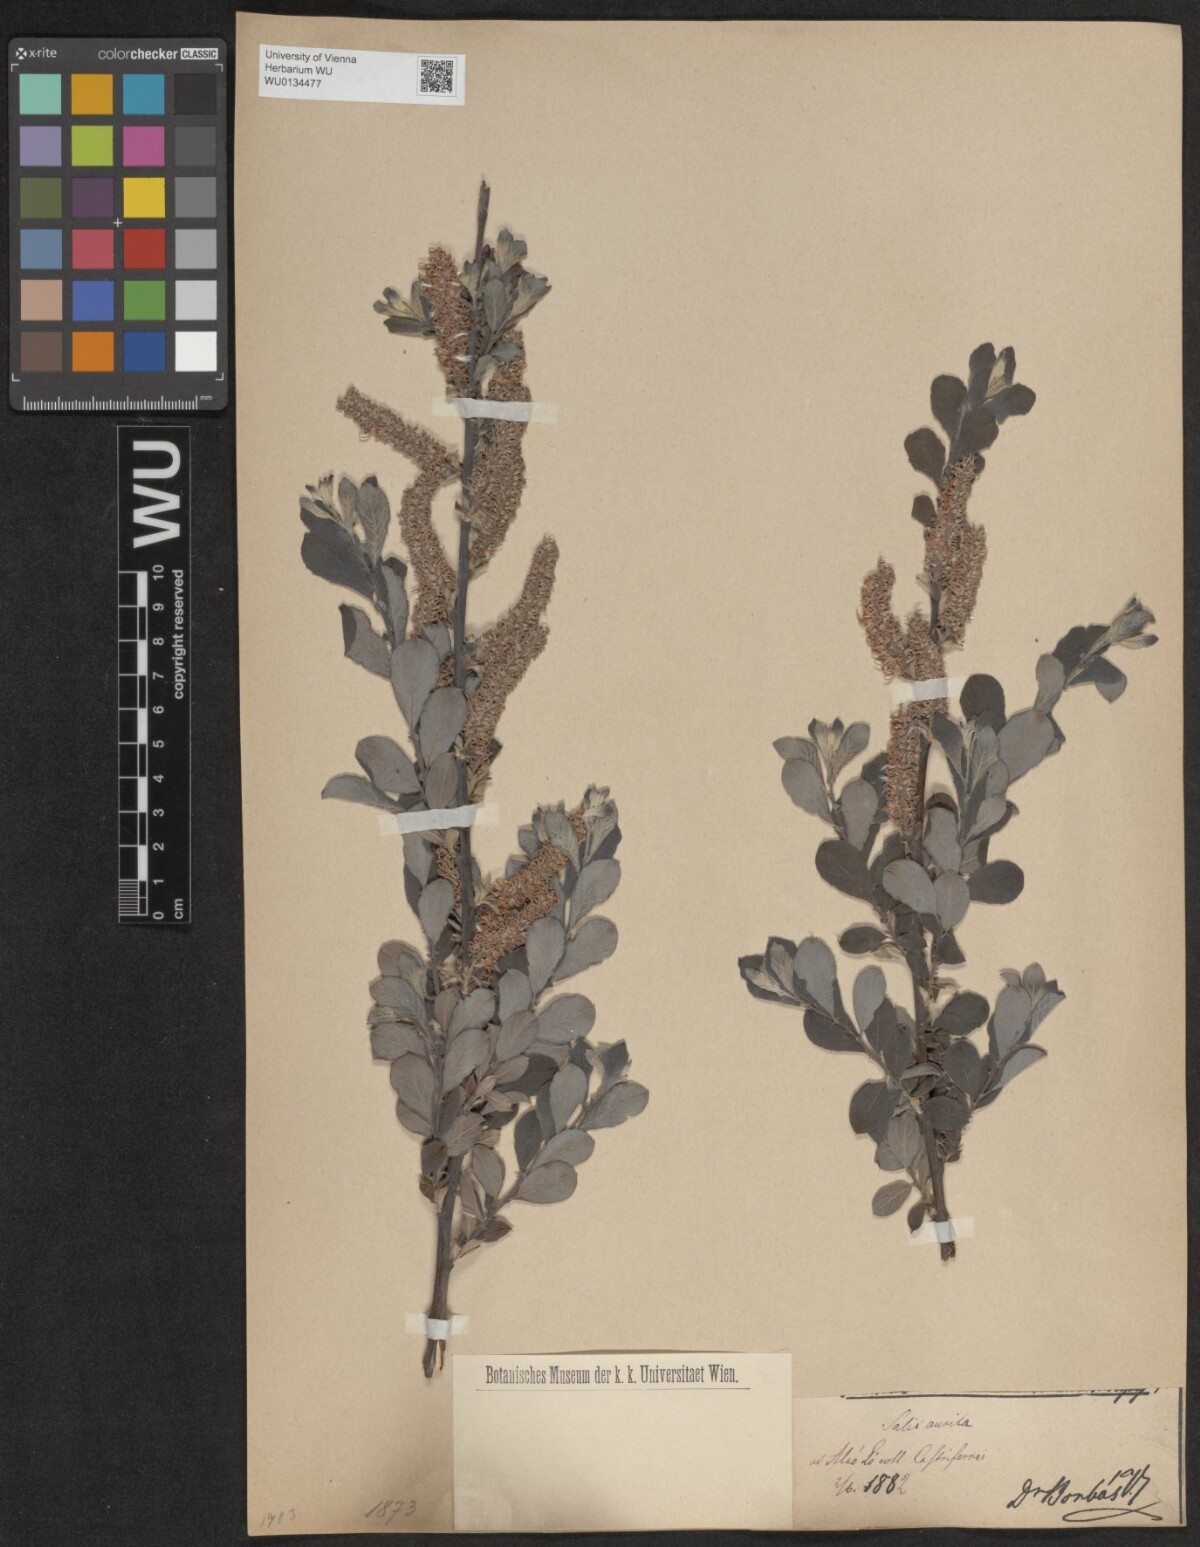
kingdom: Plantae
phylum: Tracheophyta
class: Magnoliopsida
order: Malpighiales
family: Salicaceae
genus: Salix
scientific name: Salix aurita
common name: Eared willow
